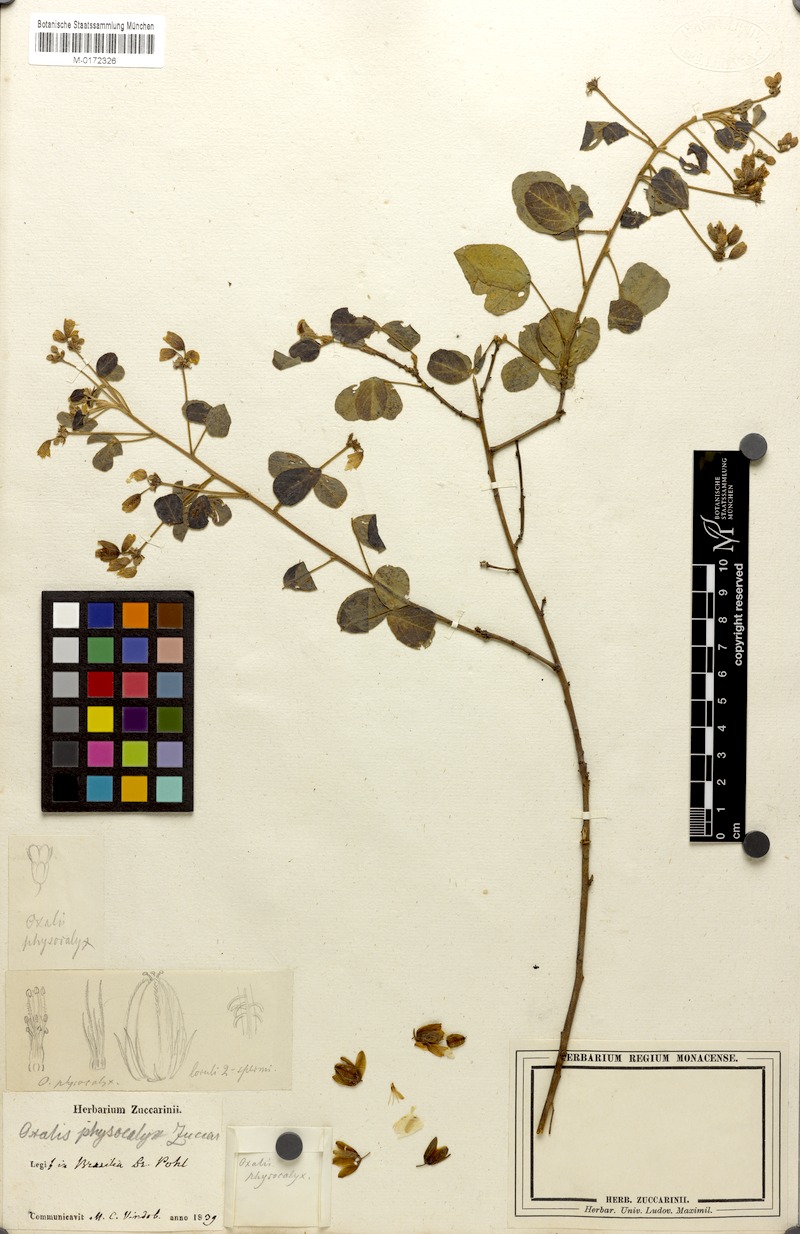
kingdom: Plantae
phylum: Tracheophyta
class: Magnoliopsida
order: Oxalidales
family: Oxalidaceae
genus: Oxalis
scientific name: Oxalis physocalyx
